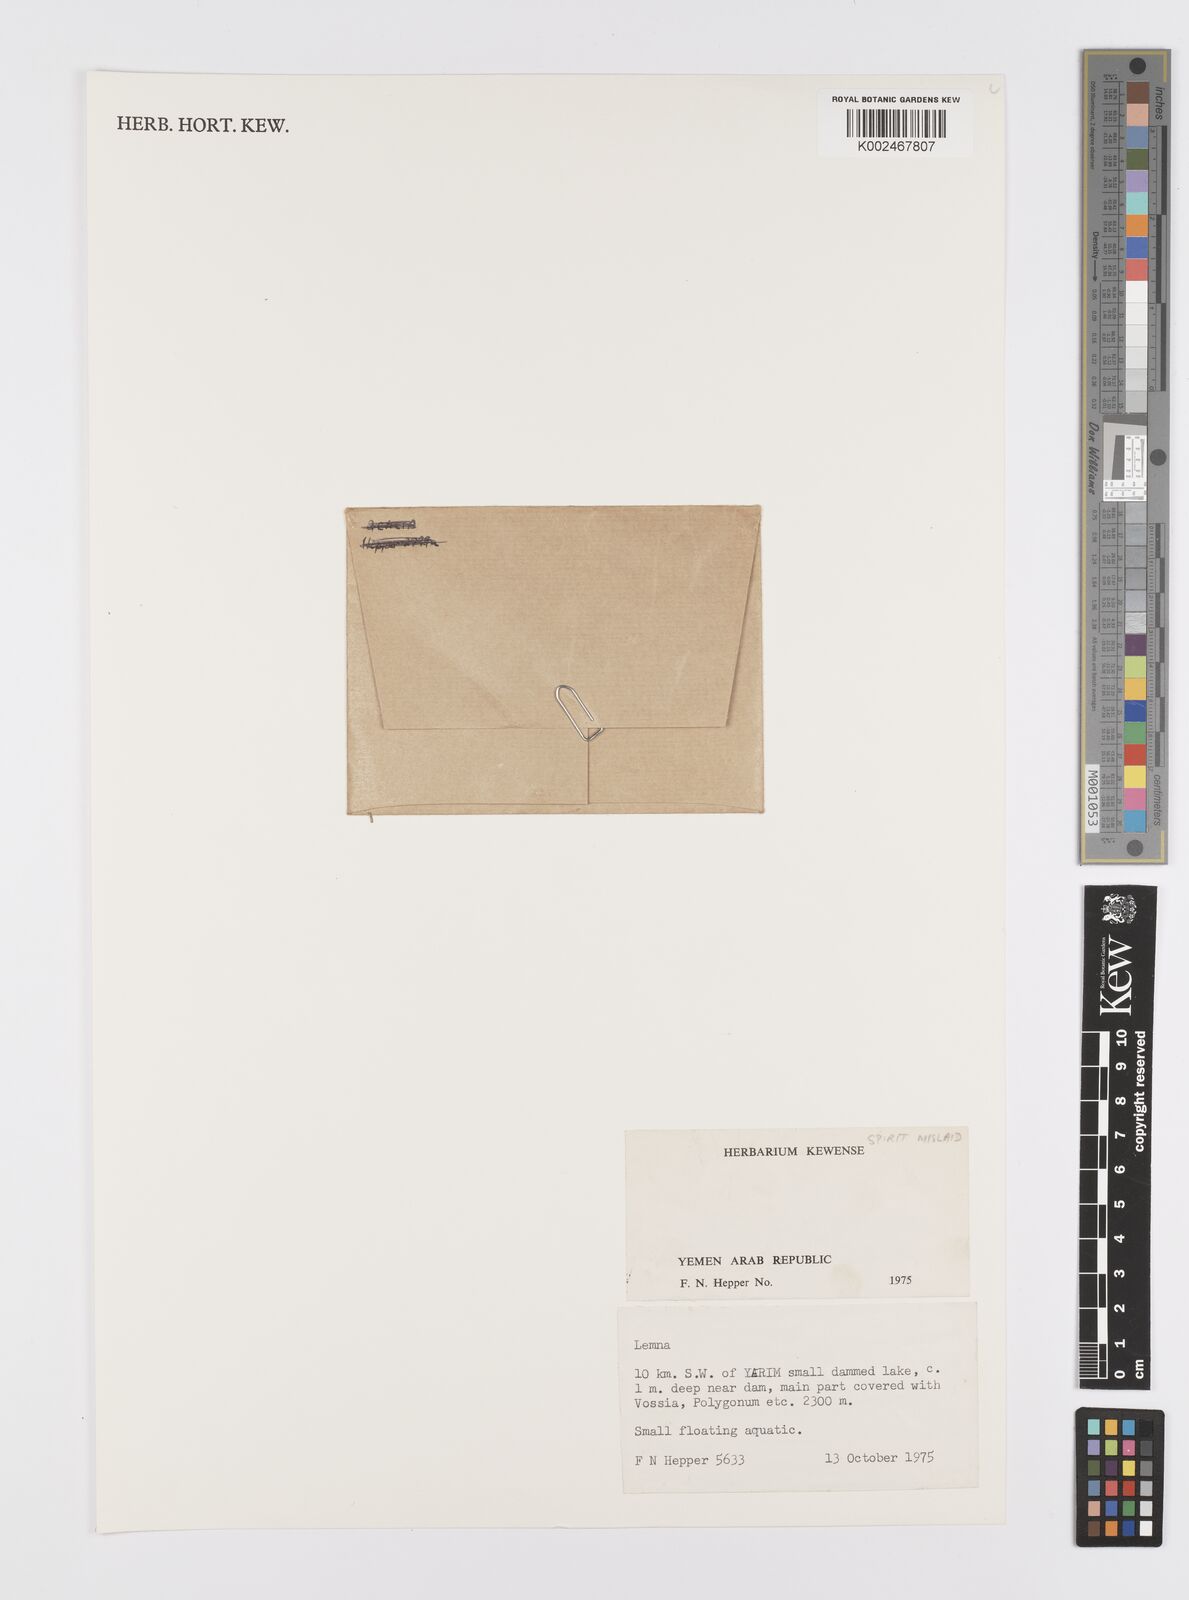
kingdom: Plantae
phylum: Tracheophyta
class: Liliopsida
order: Alismatales
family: Araceae
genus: Lemna
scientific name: Lemna
